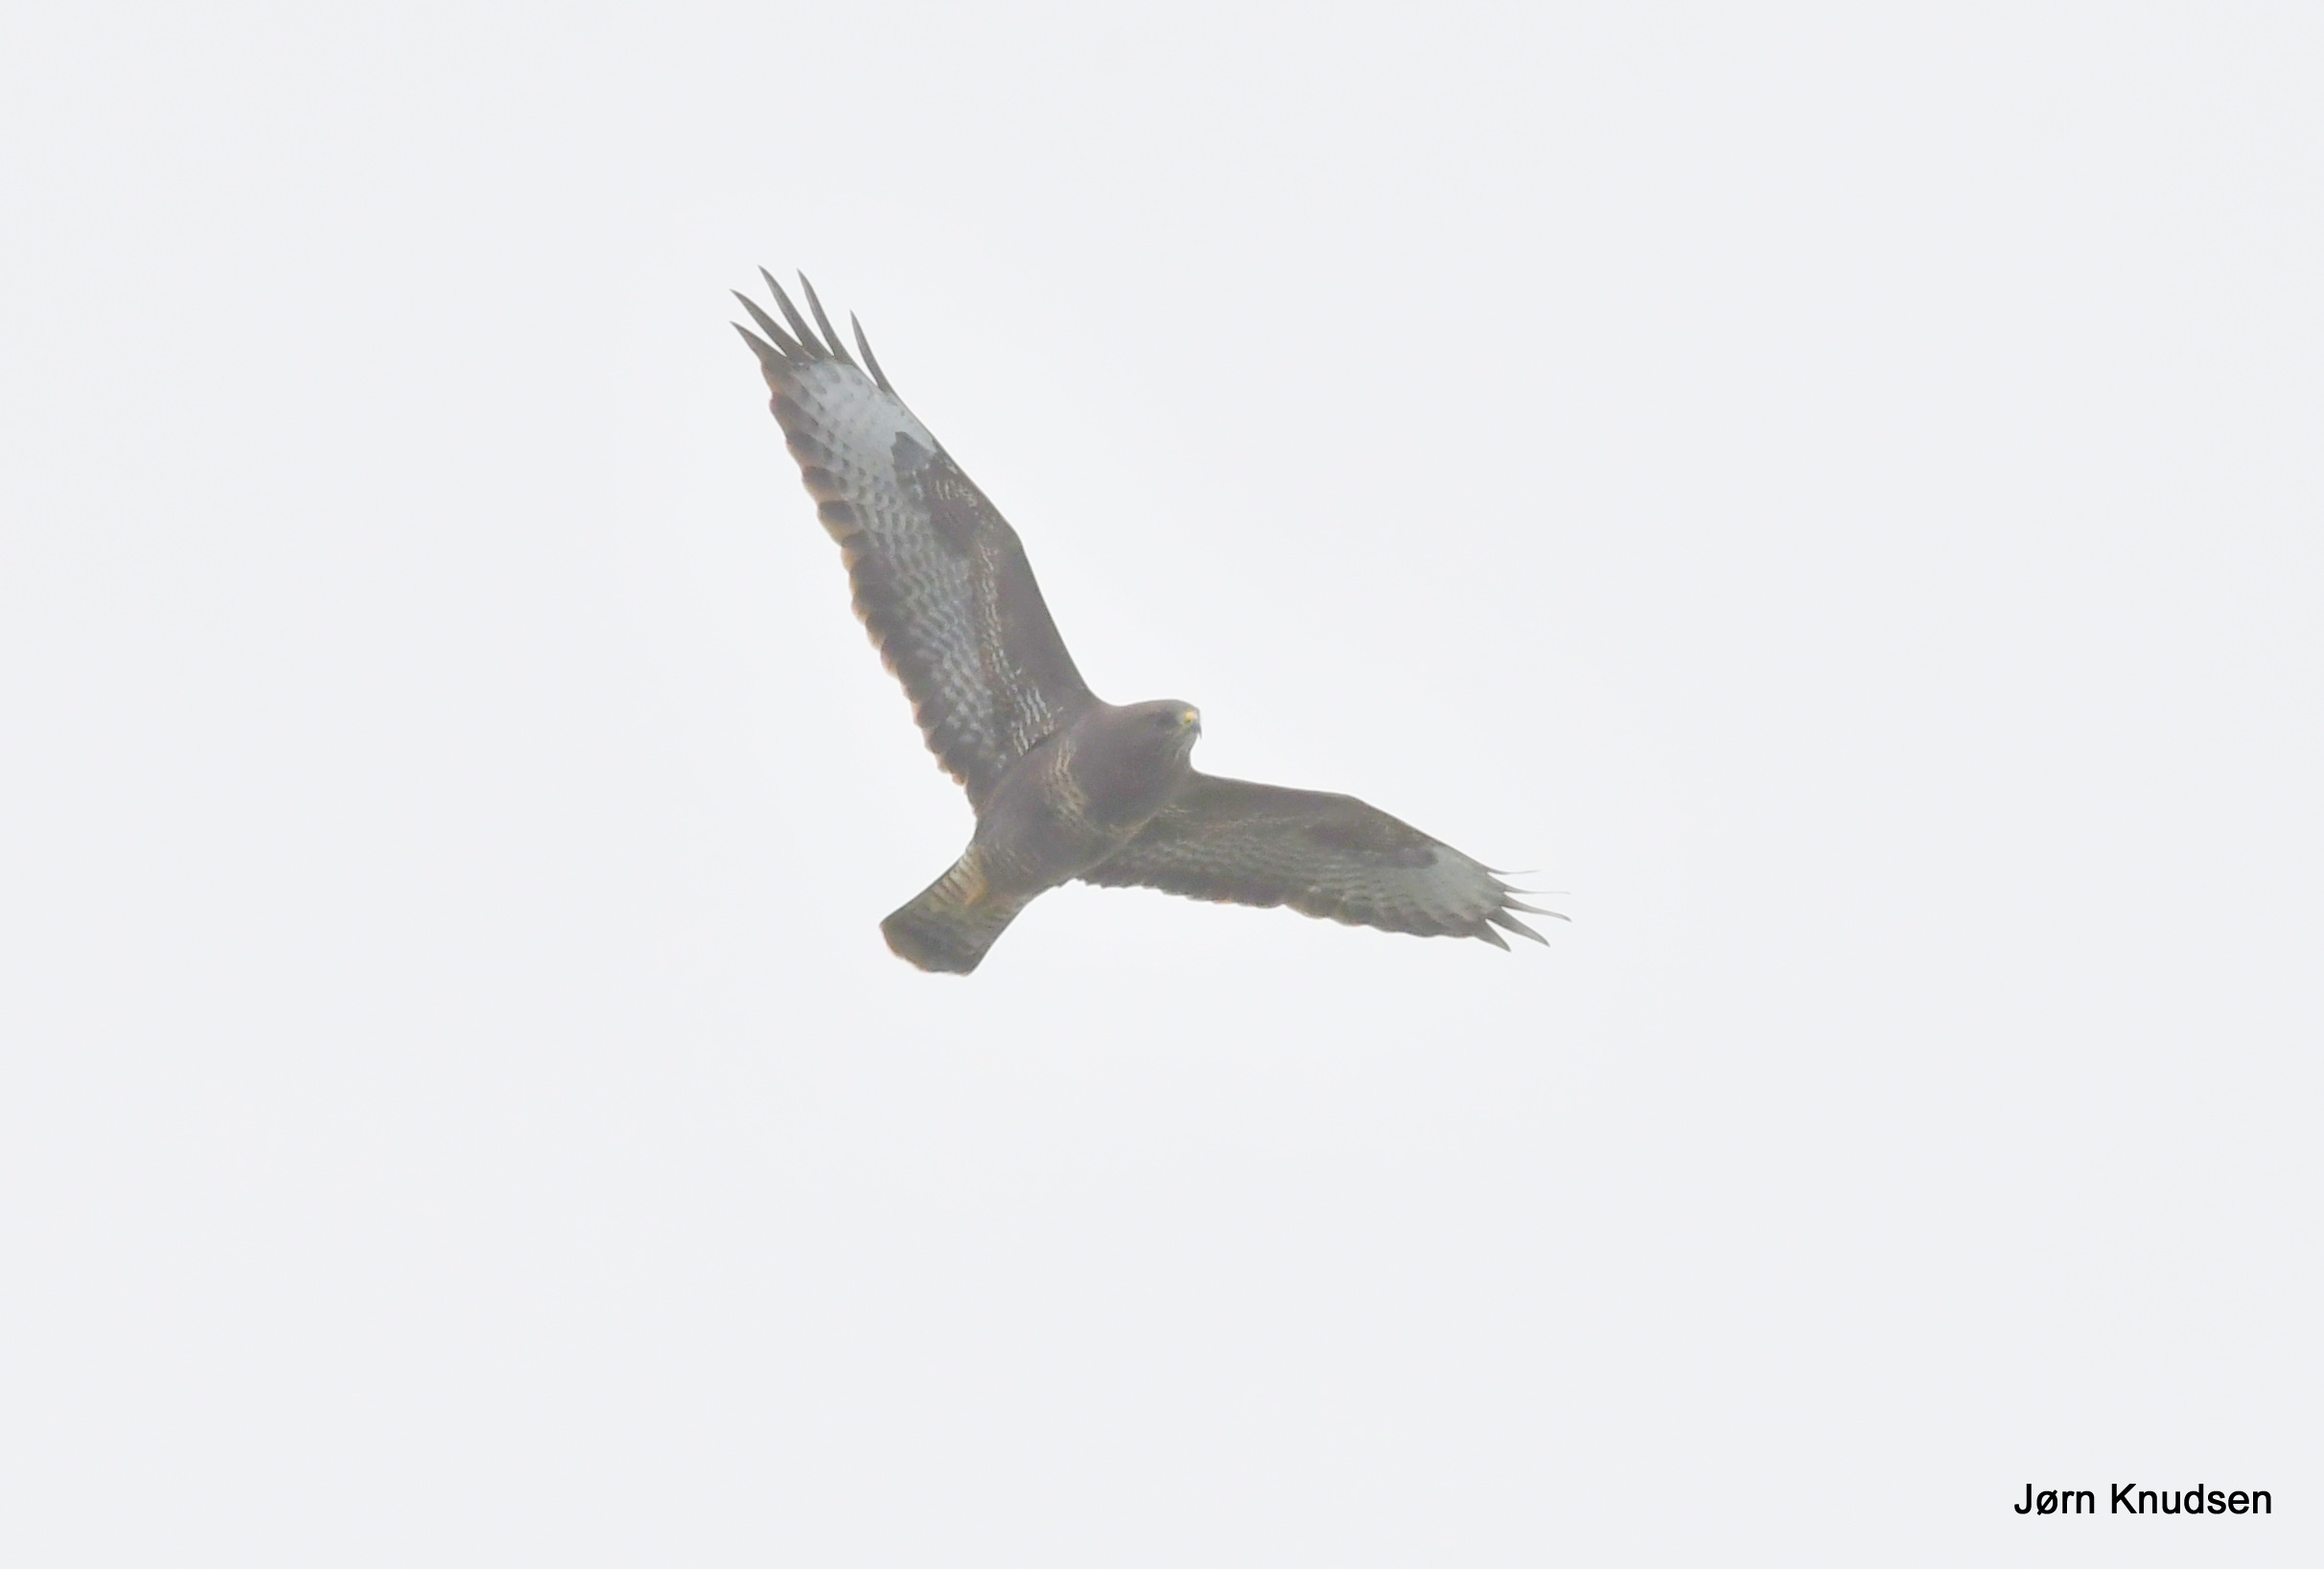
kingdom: Animalia
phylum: Chordata
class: Aves
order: Accipitriformes
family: Accipitridae
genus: Buteo
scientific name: Buteo buteo
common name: Musvåge
